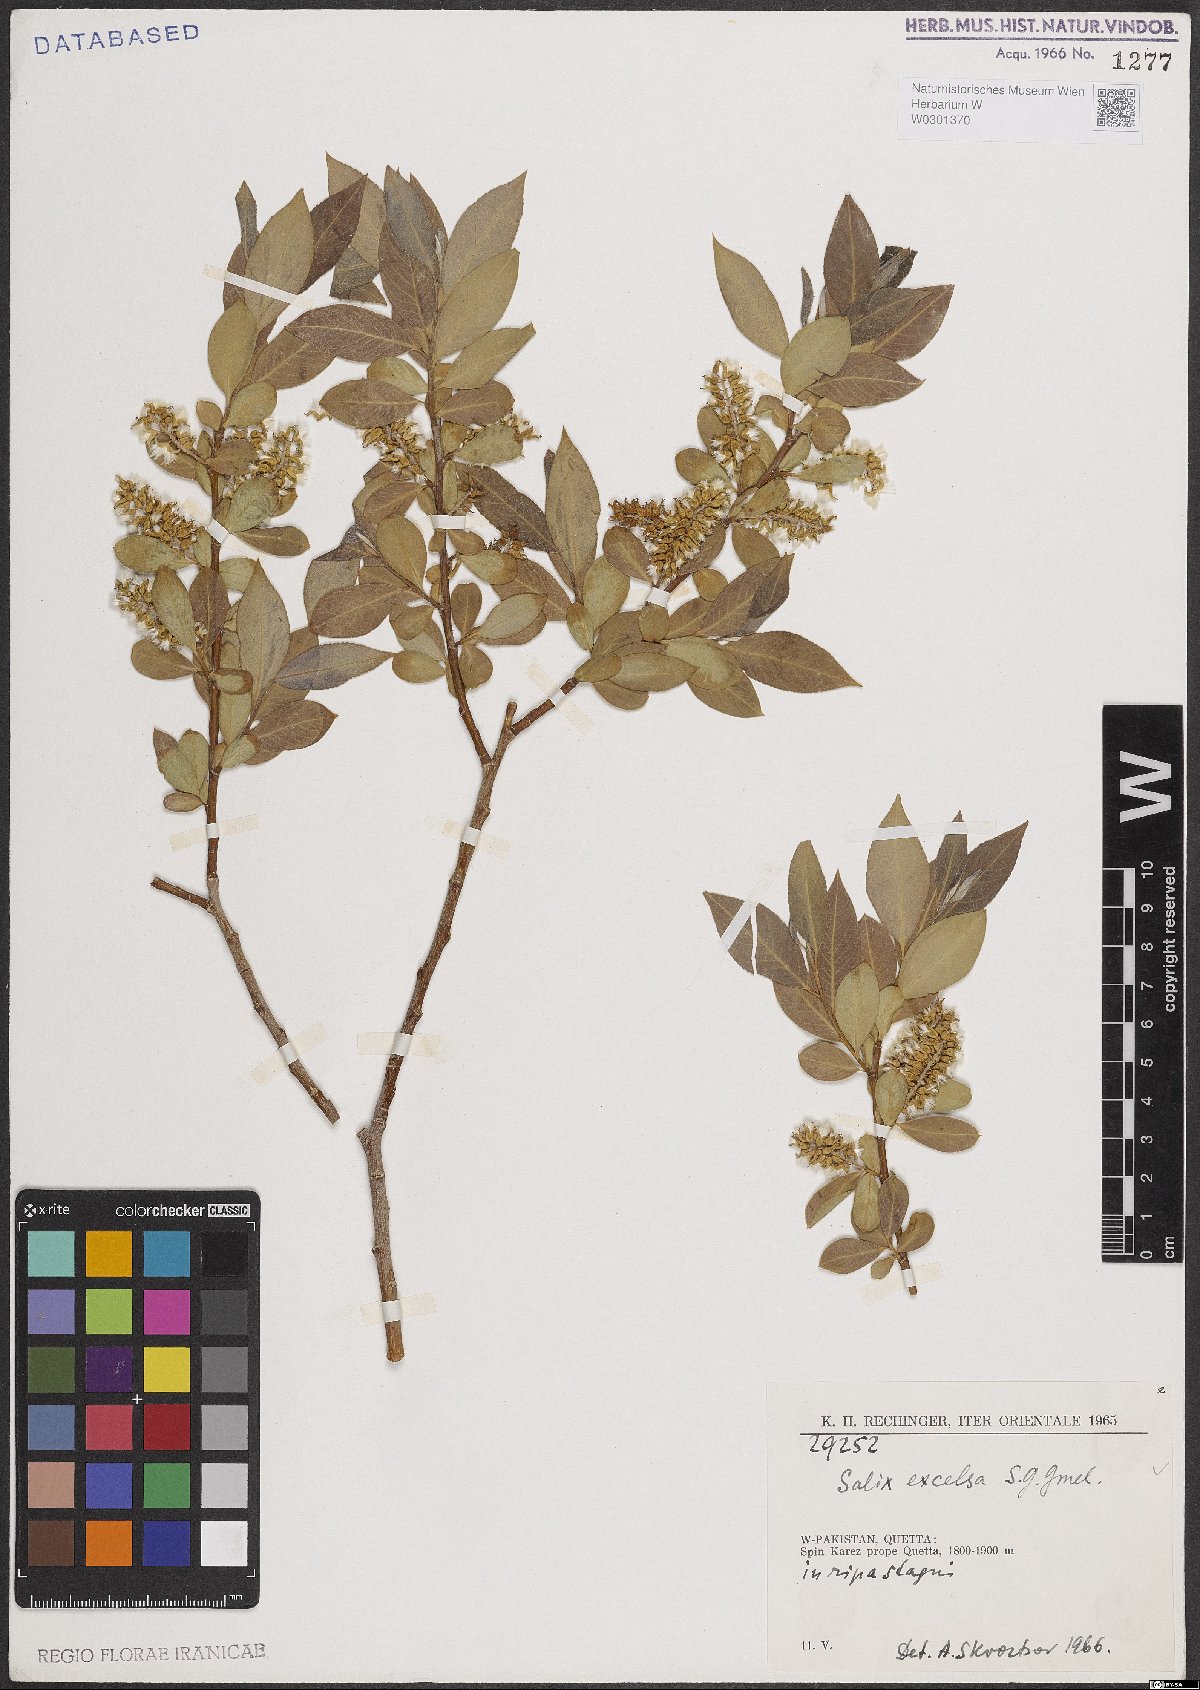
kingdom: Plantae
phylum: Tracheophyta
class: Magnoliopsida
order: Malpighiales
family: Salicaceae
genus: Salix
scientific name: Salix excelsa
